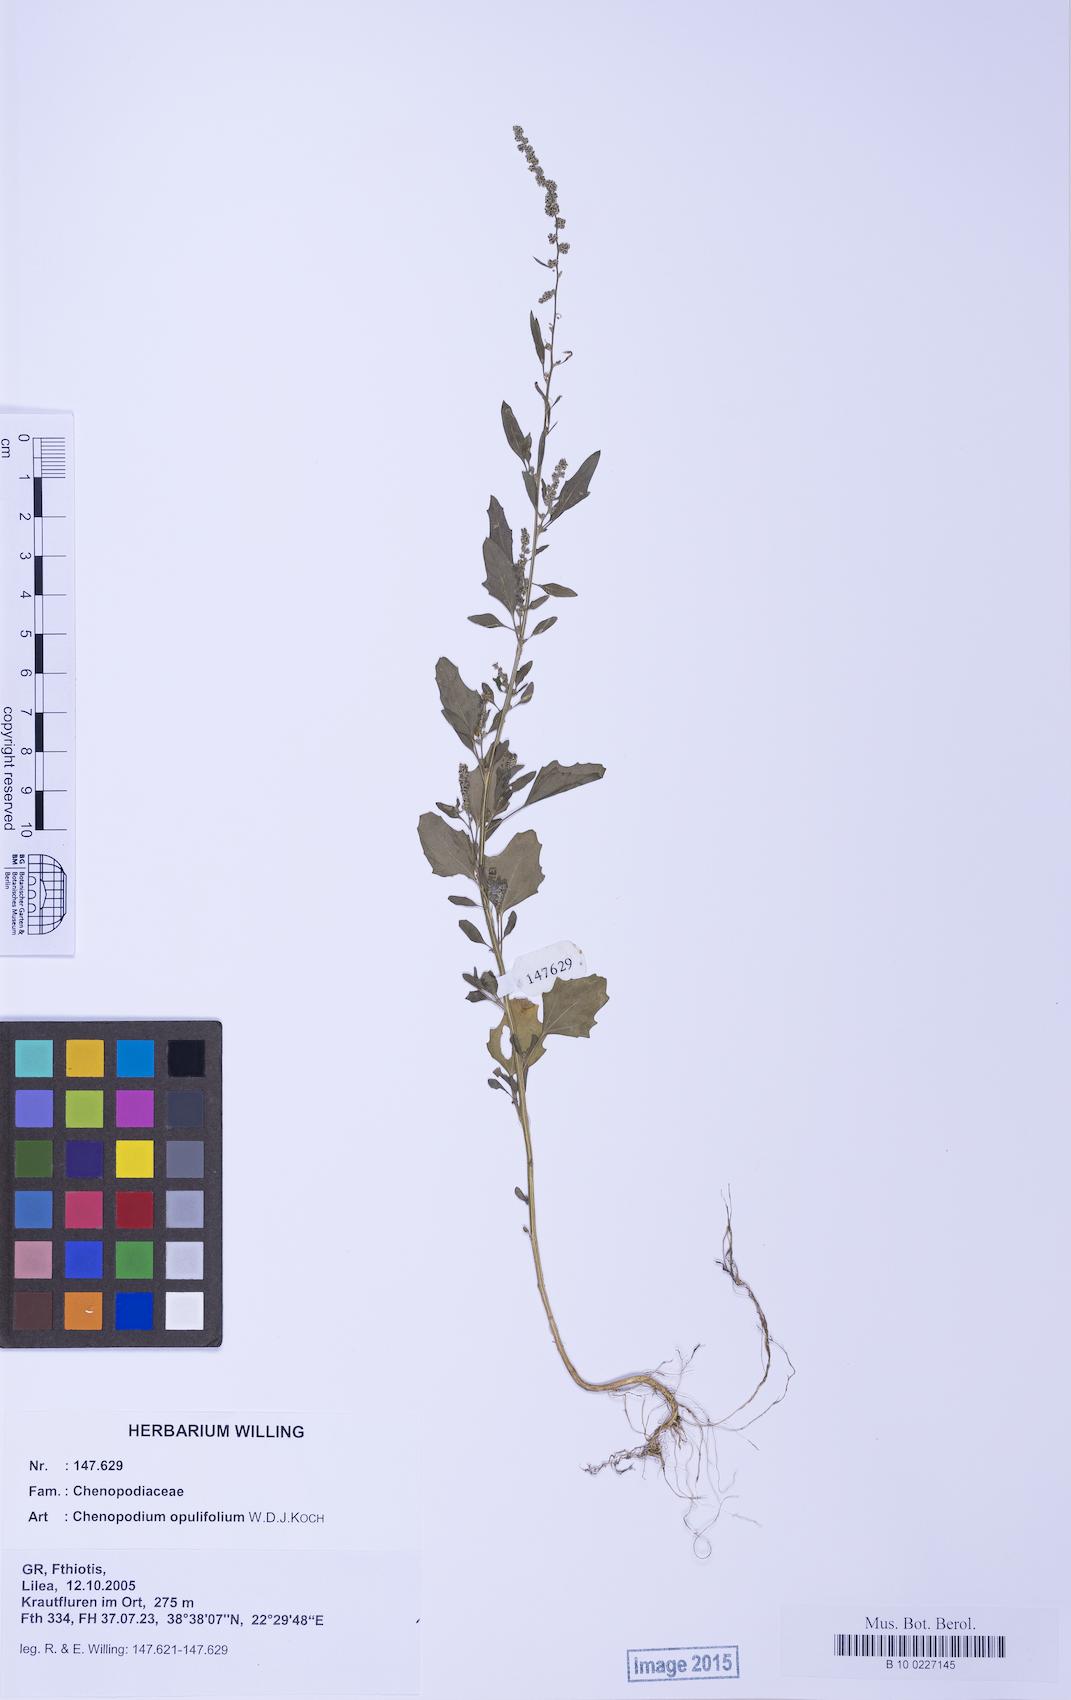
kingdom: Plantae
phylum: Tracheophyta
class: Magnoliopsida
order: Caryophyllales
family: Amaranthaceae
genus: Chenopodium
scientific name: Chenopodium album
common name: Fat-hen
